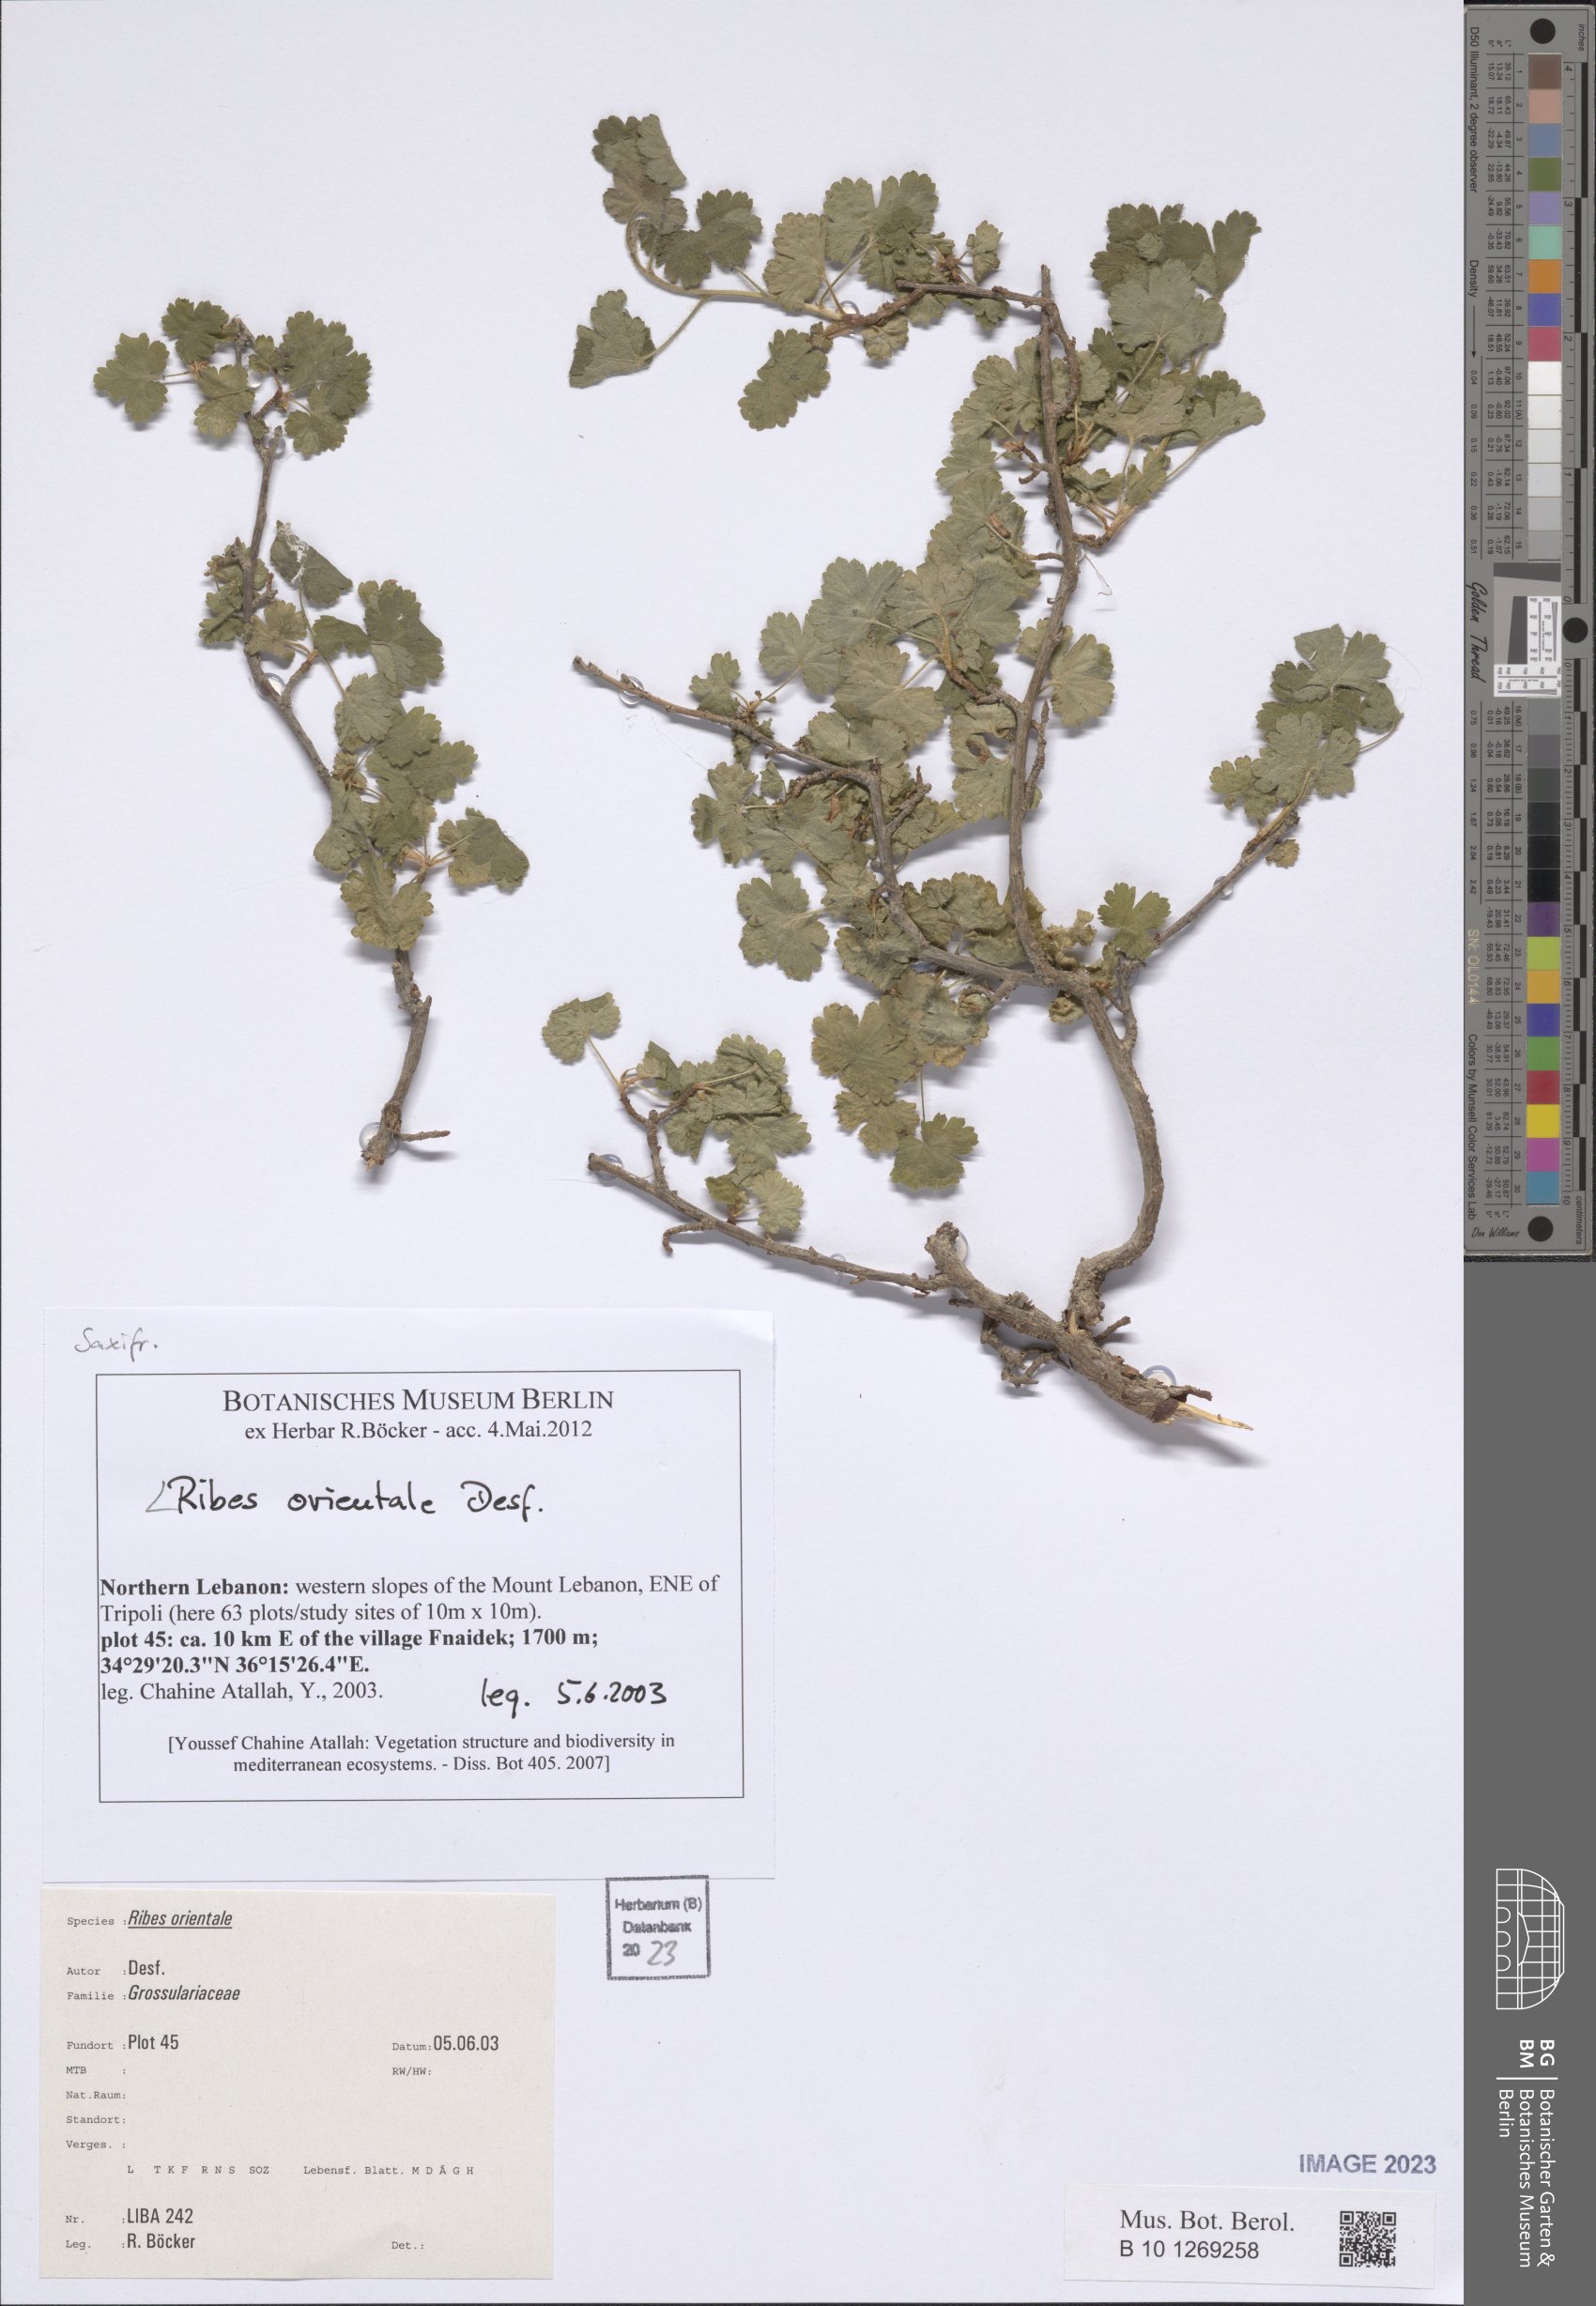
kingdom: Plantae
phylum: Tracheophyta
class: Magnoliopsida
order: Saxifragales
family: Grossulariaceae
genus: Ribes
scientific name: Ribes orientale
